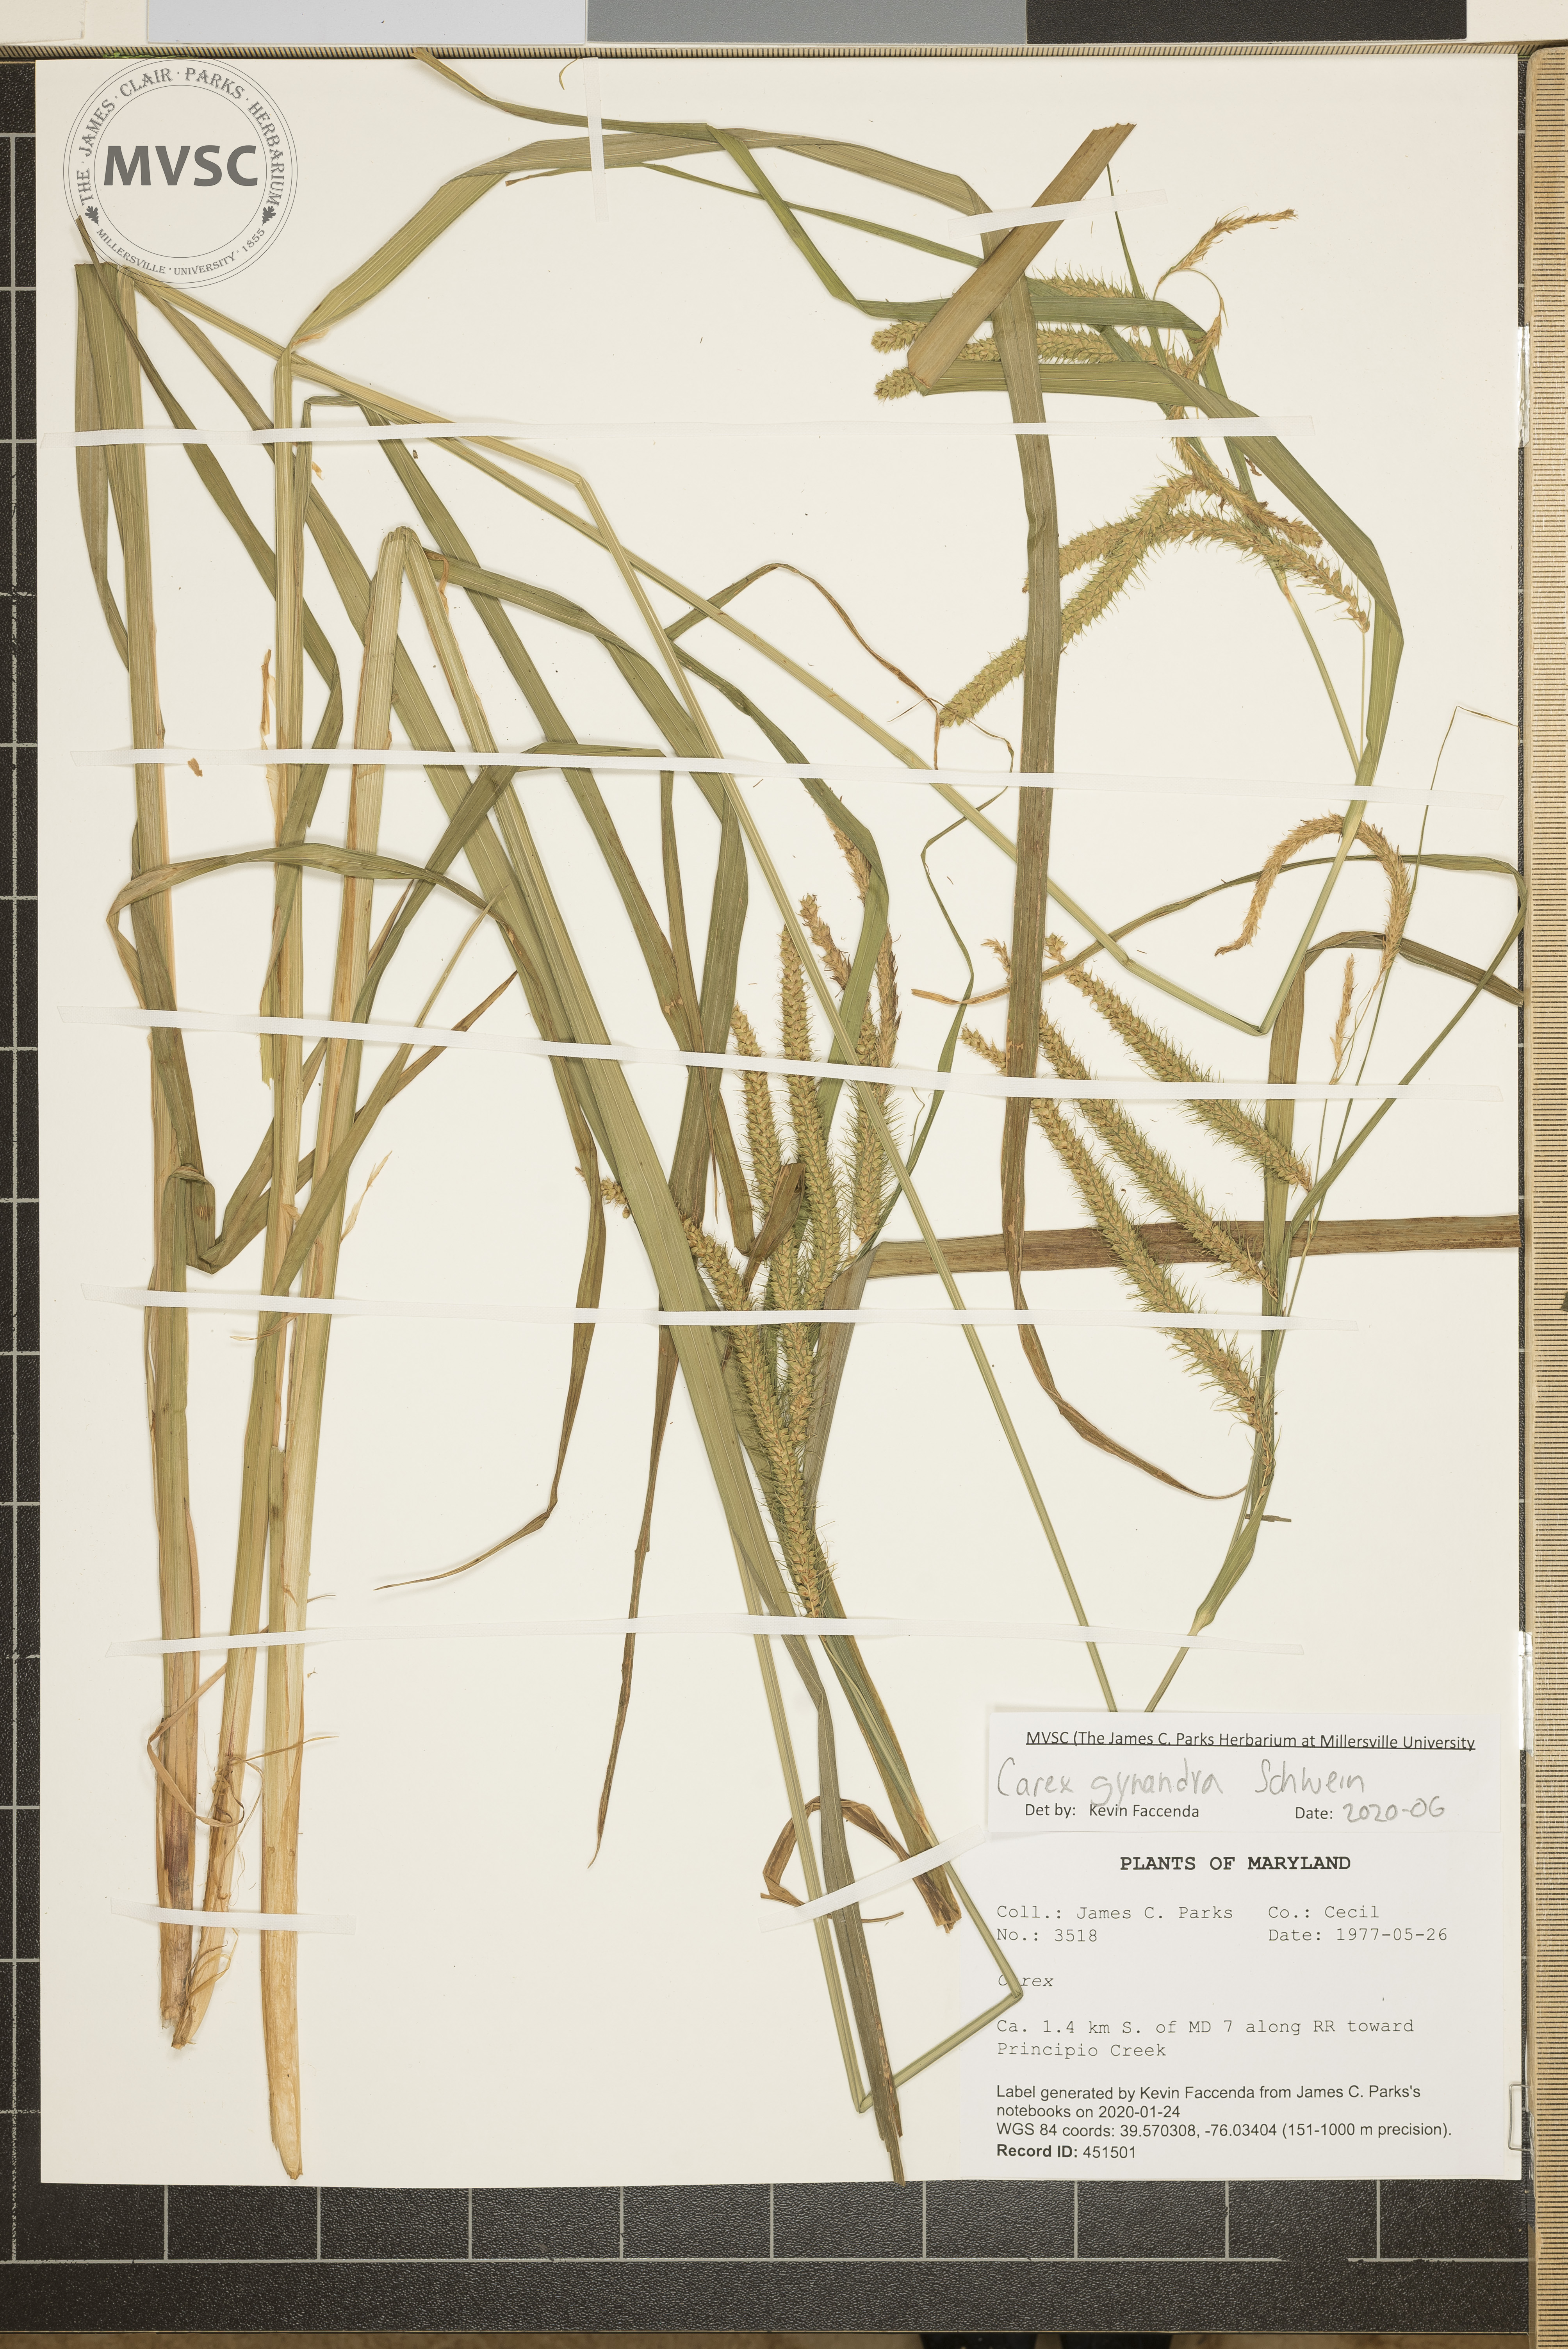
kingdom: Plantae
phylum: Tracheophyta
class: Liliopsida
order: Poales
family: Cyperaceae
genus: Carex
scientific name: Carex gynandra
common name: Nodding sedge
